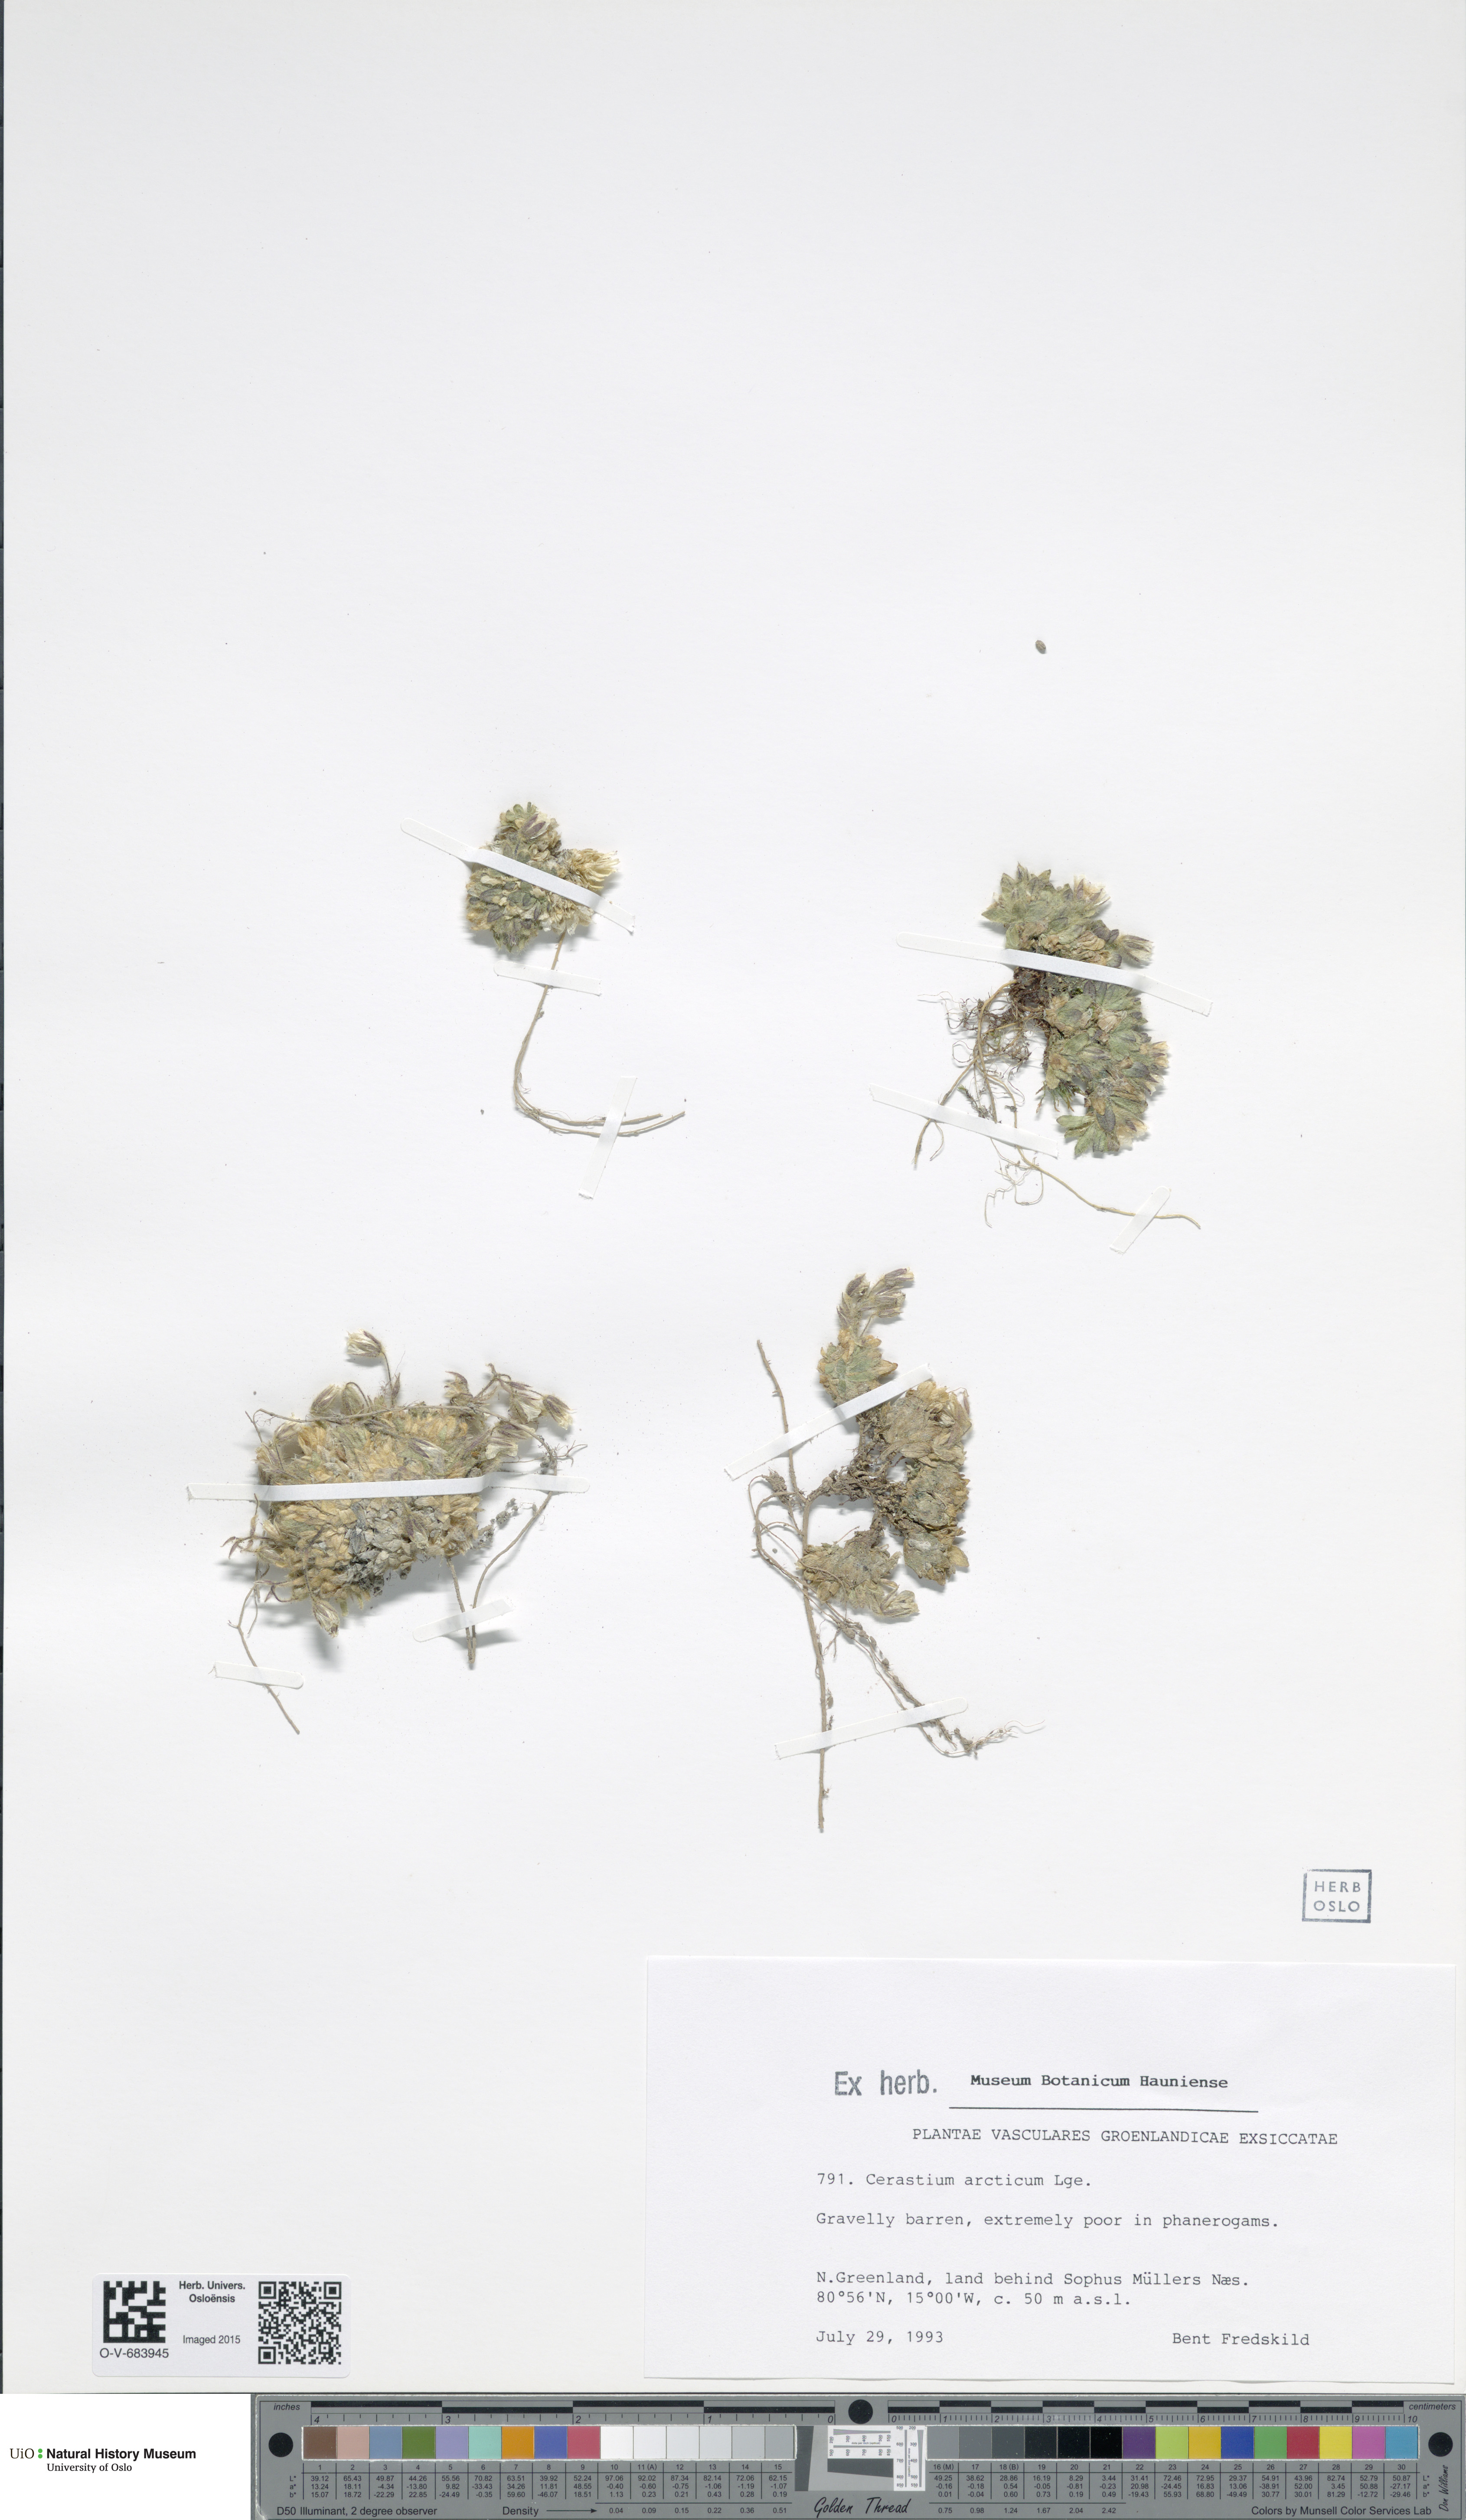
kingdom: Plantae
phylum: Tracheophyta
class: Magnoliopsida
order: Caryophyllales
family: Caryophyllaceae
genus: Cerastium
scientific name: Cerastium arcticum
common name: Arctic mouse-ear
